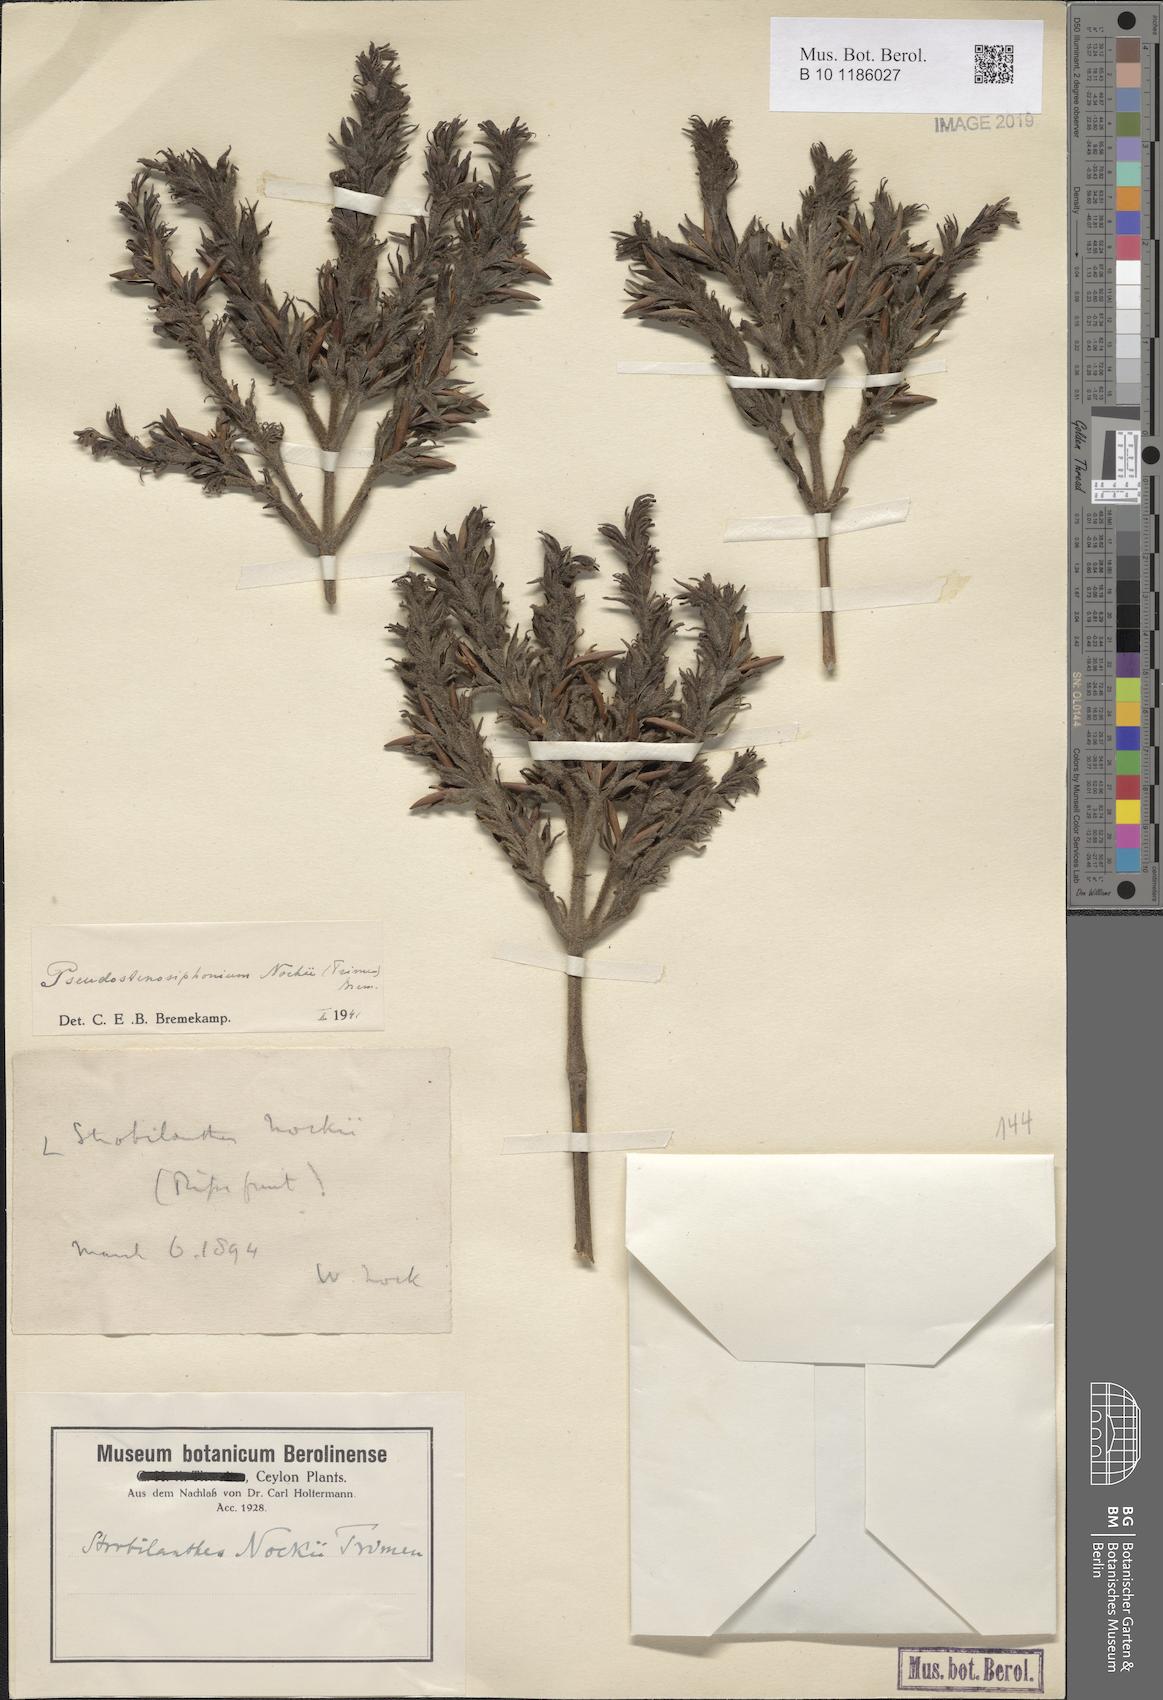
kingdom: Plantae
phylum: Tracheophyta
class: Magnoliopsida
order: Lamiales
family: Acanthaceae
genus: Strobilanthes
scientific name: Strobilanthes nockii
